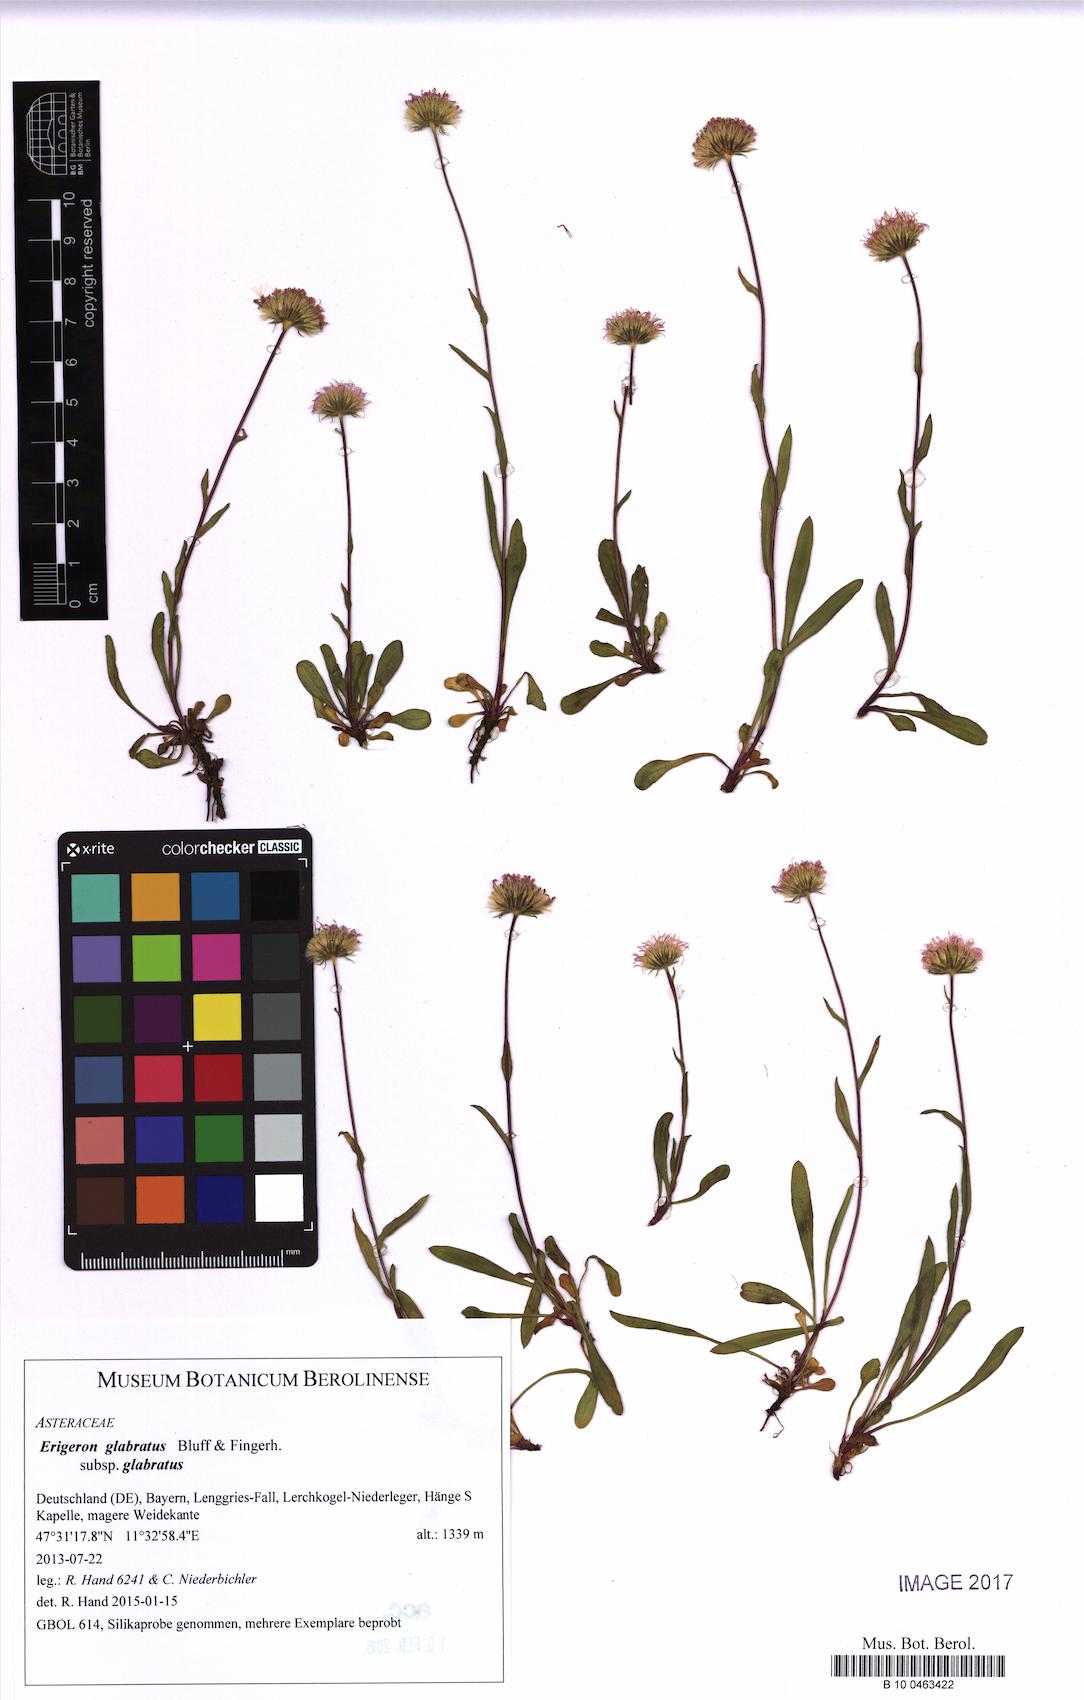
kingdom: Plantae
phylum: Tracheophyta
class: Magnoliopsida
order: Asterales
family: Asteraceae
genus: Erigeron
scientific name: Erigeron glabratus
